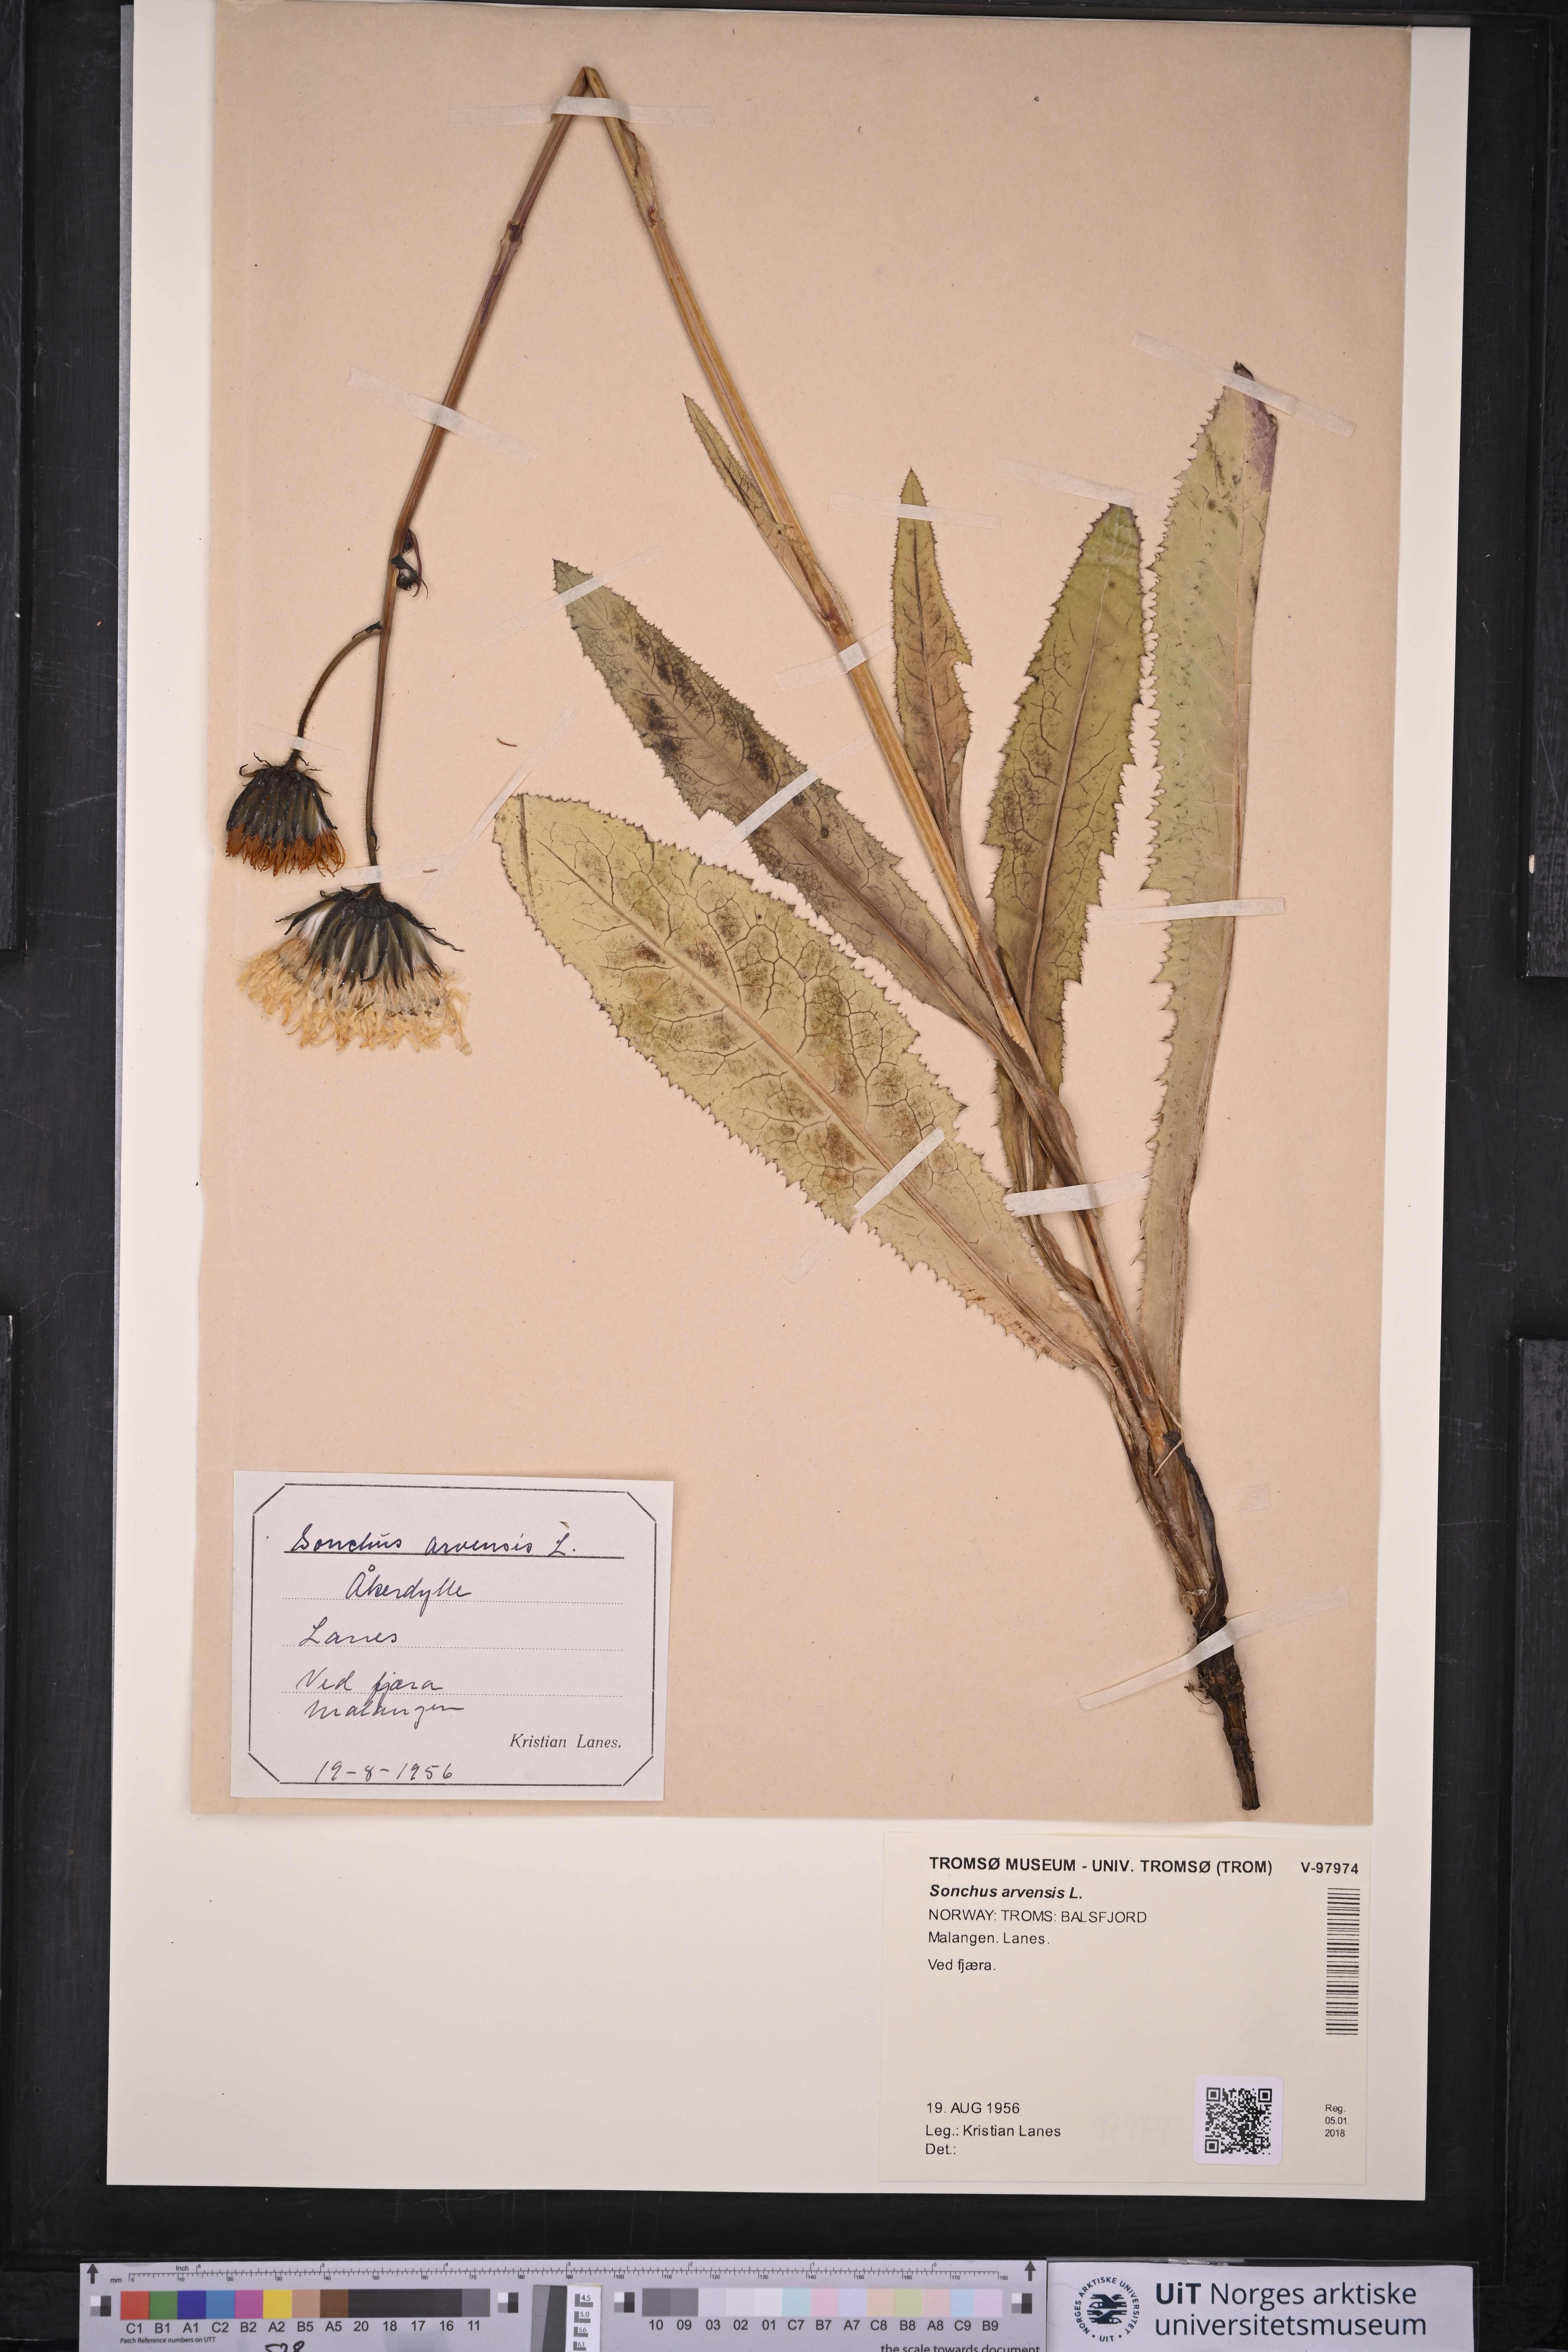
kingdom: Plantae
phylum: Tracheophyta
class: Magnoliopsida
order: Asterales
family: Asteraceae
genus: Sonchus
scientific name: Sonchus arvensis
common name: Perennial sow-thistle
